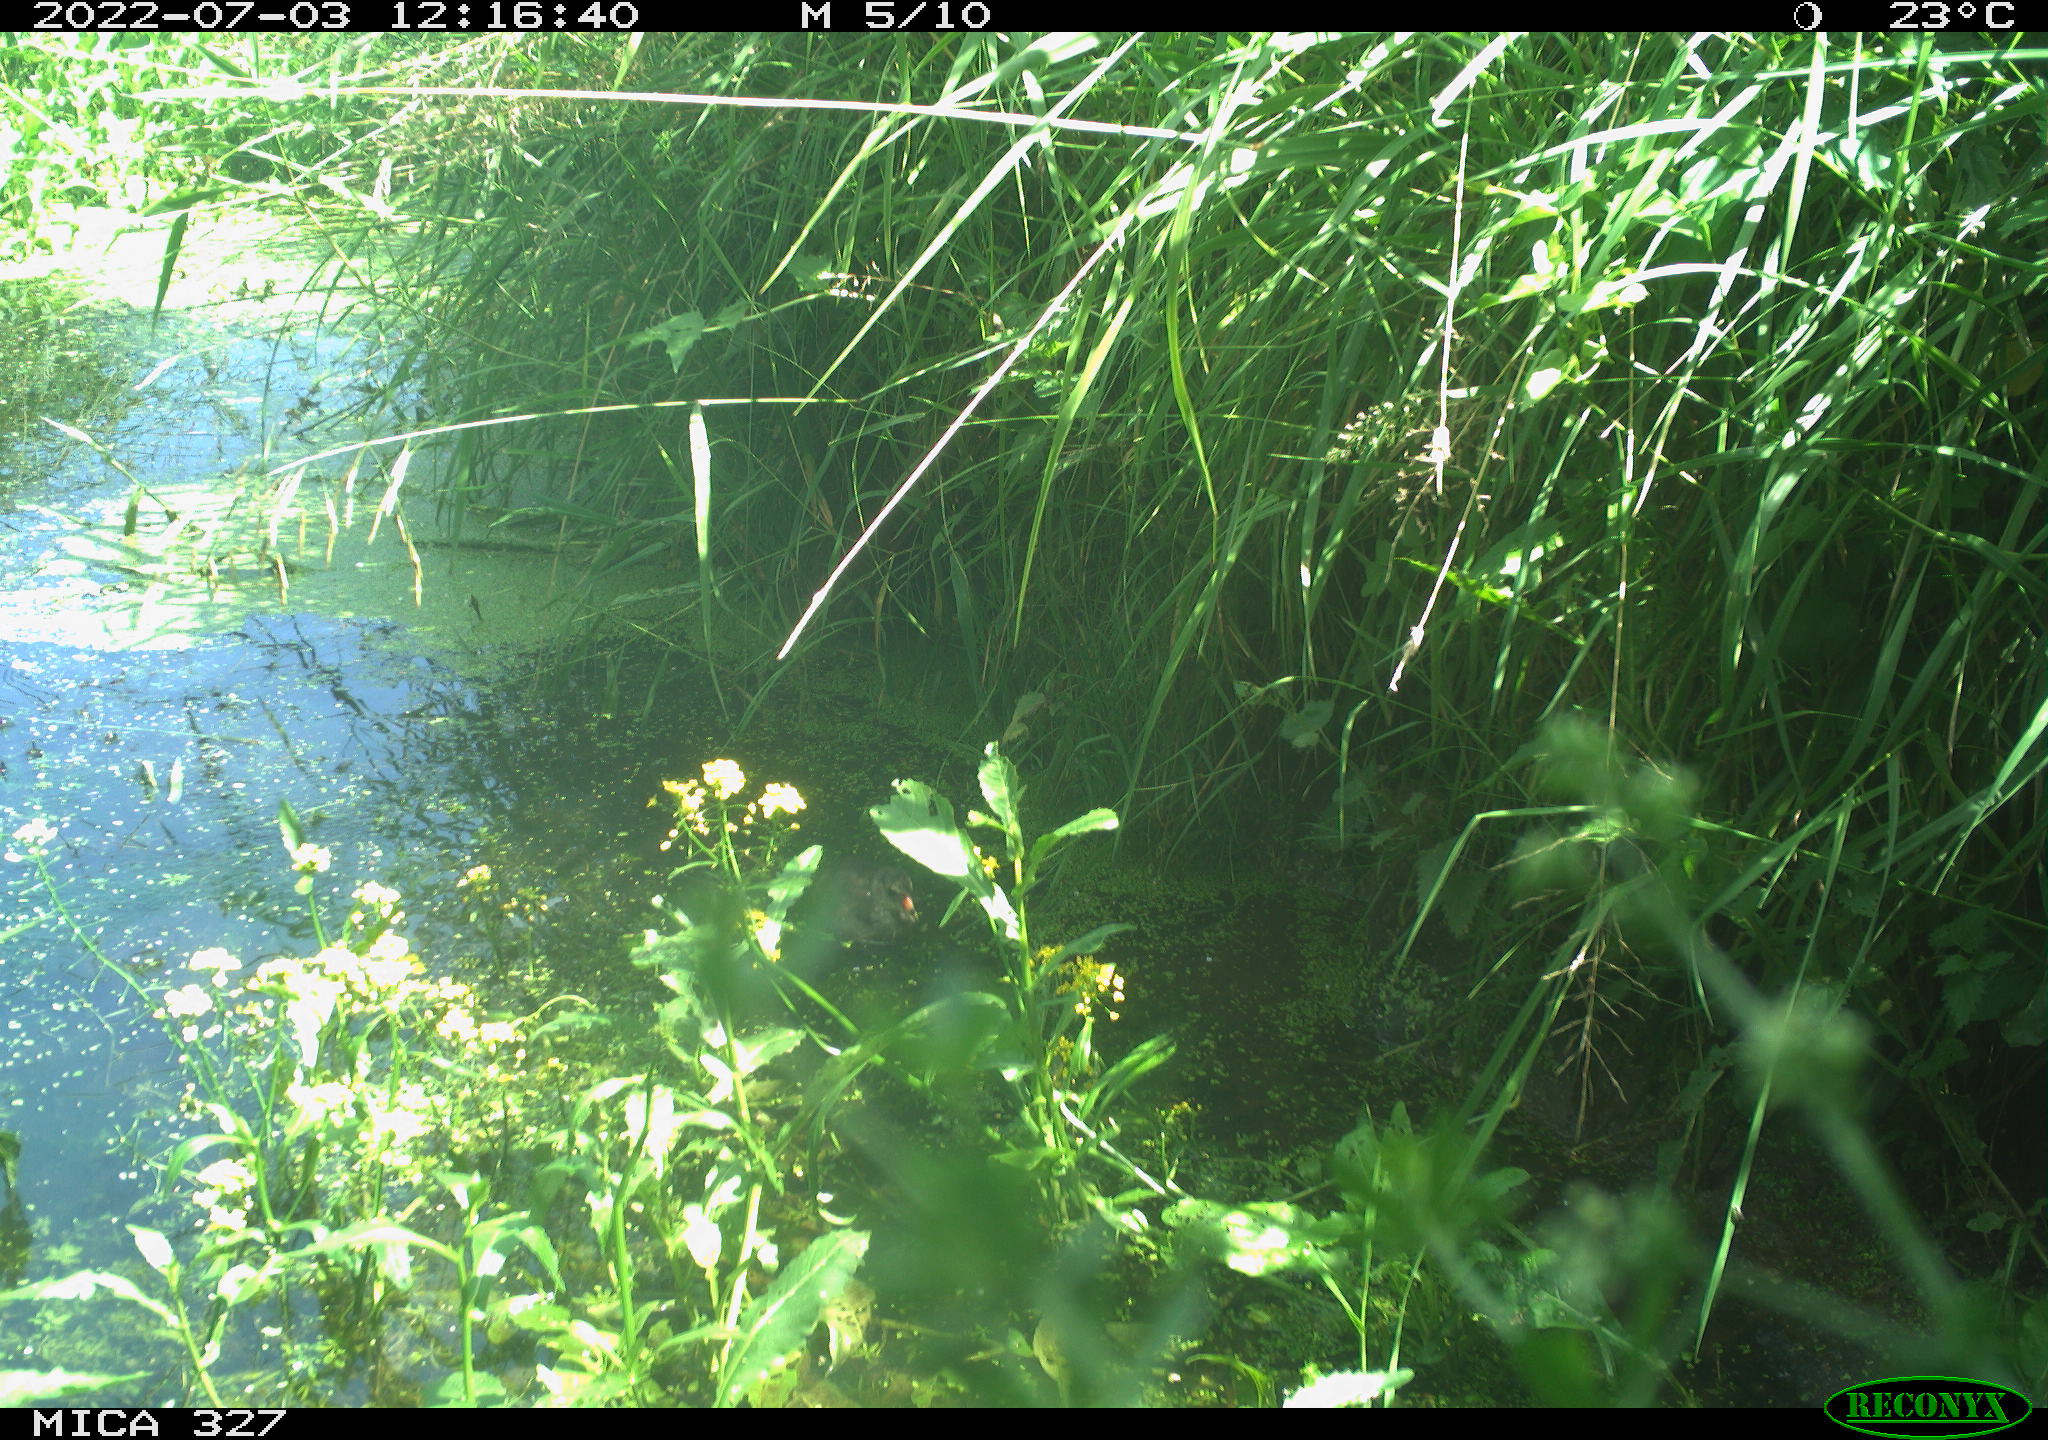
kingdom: Animalia
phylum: Chordata
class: Aves
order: Gruiformes
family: Rallidae
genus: Gallinula
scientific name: Gallinula chloropus
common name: Common moorhen
